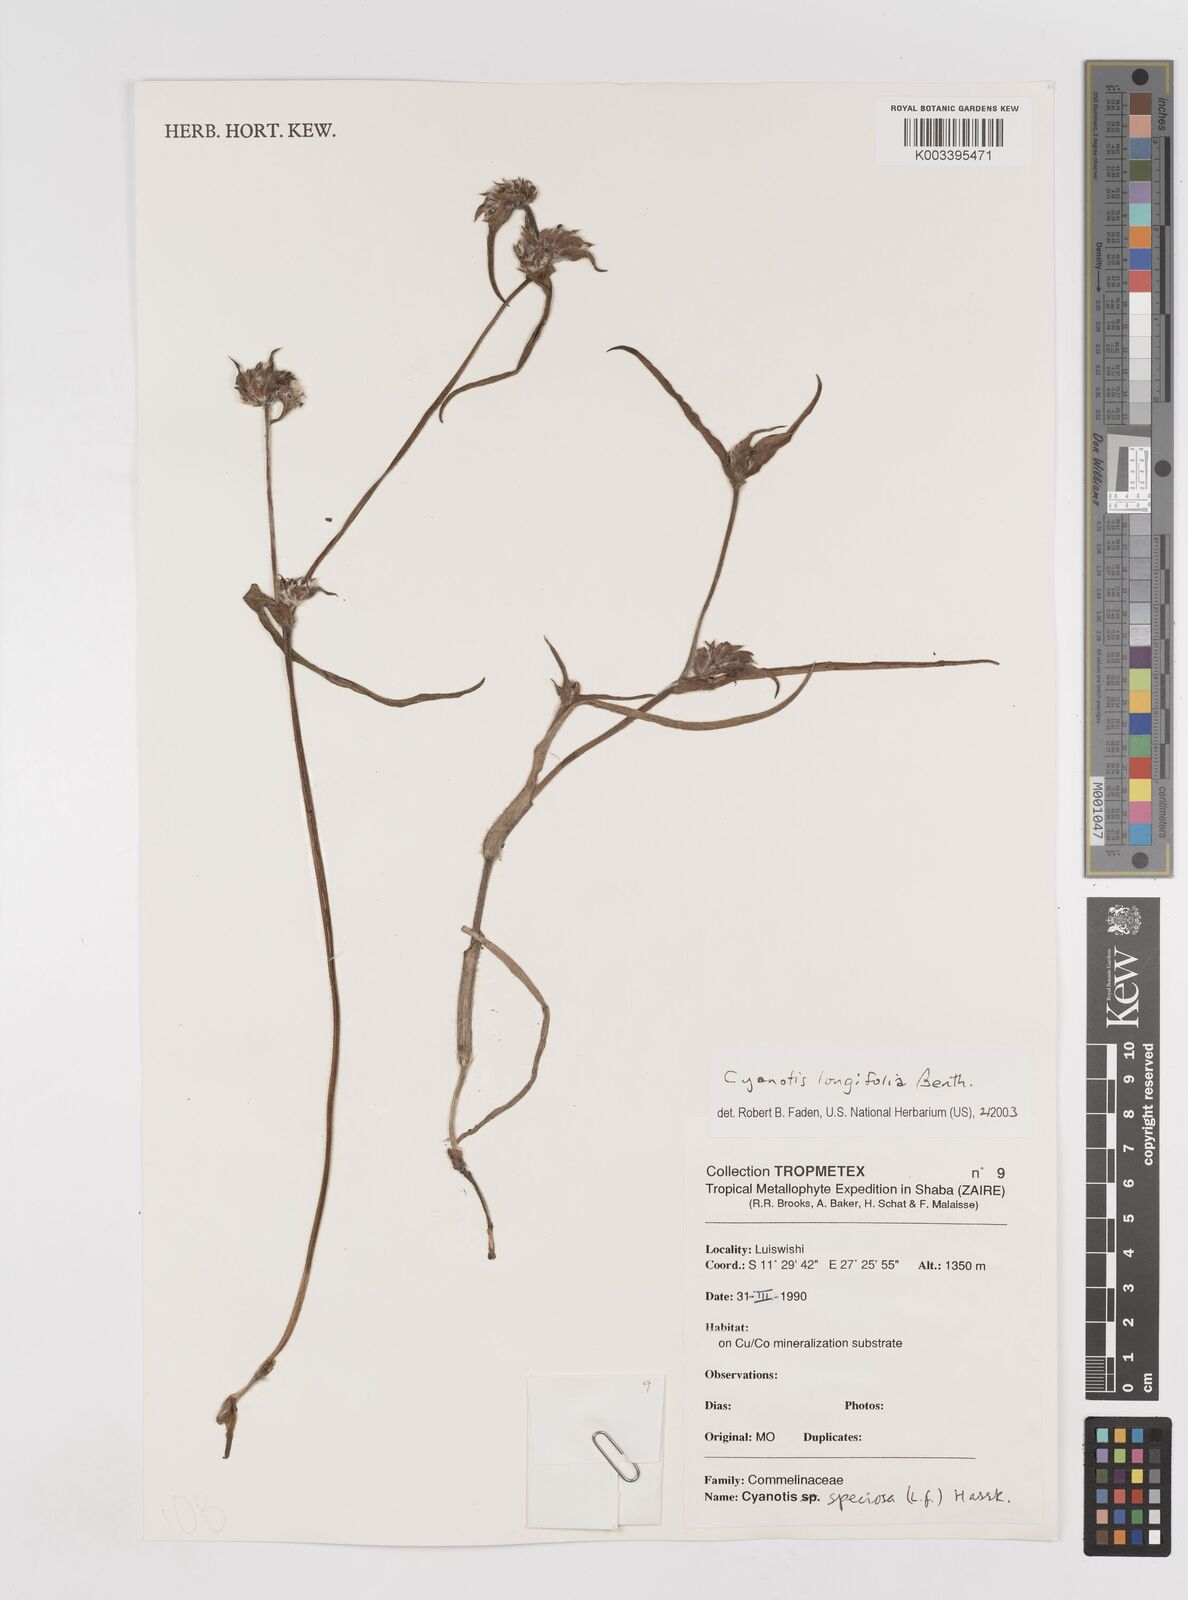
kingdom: Plantae
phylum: Tracheophyta
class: Liliopsida
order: Commelinales
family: Commelinaceae
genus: Cyanotis
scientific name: Cyanotis longifolia
